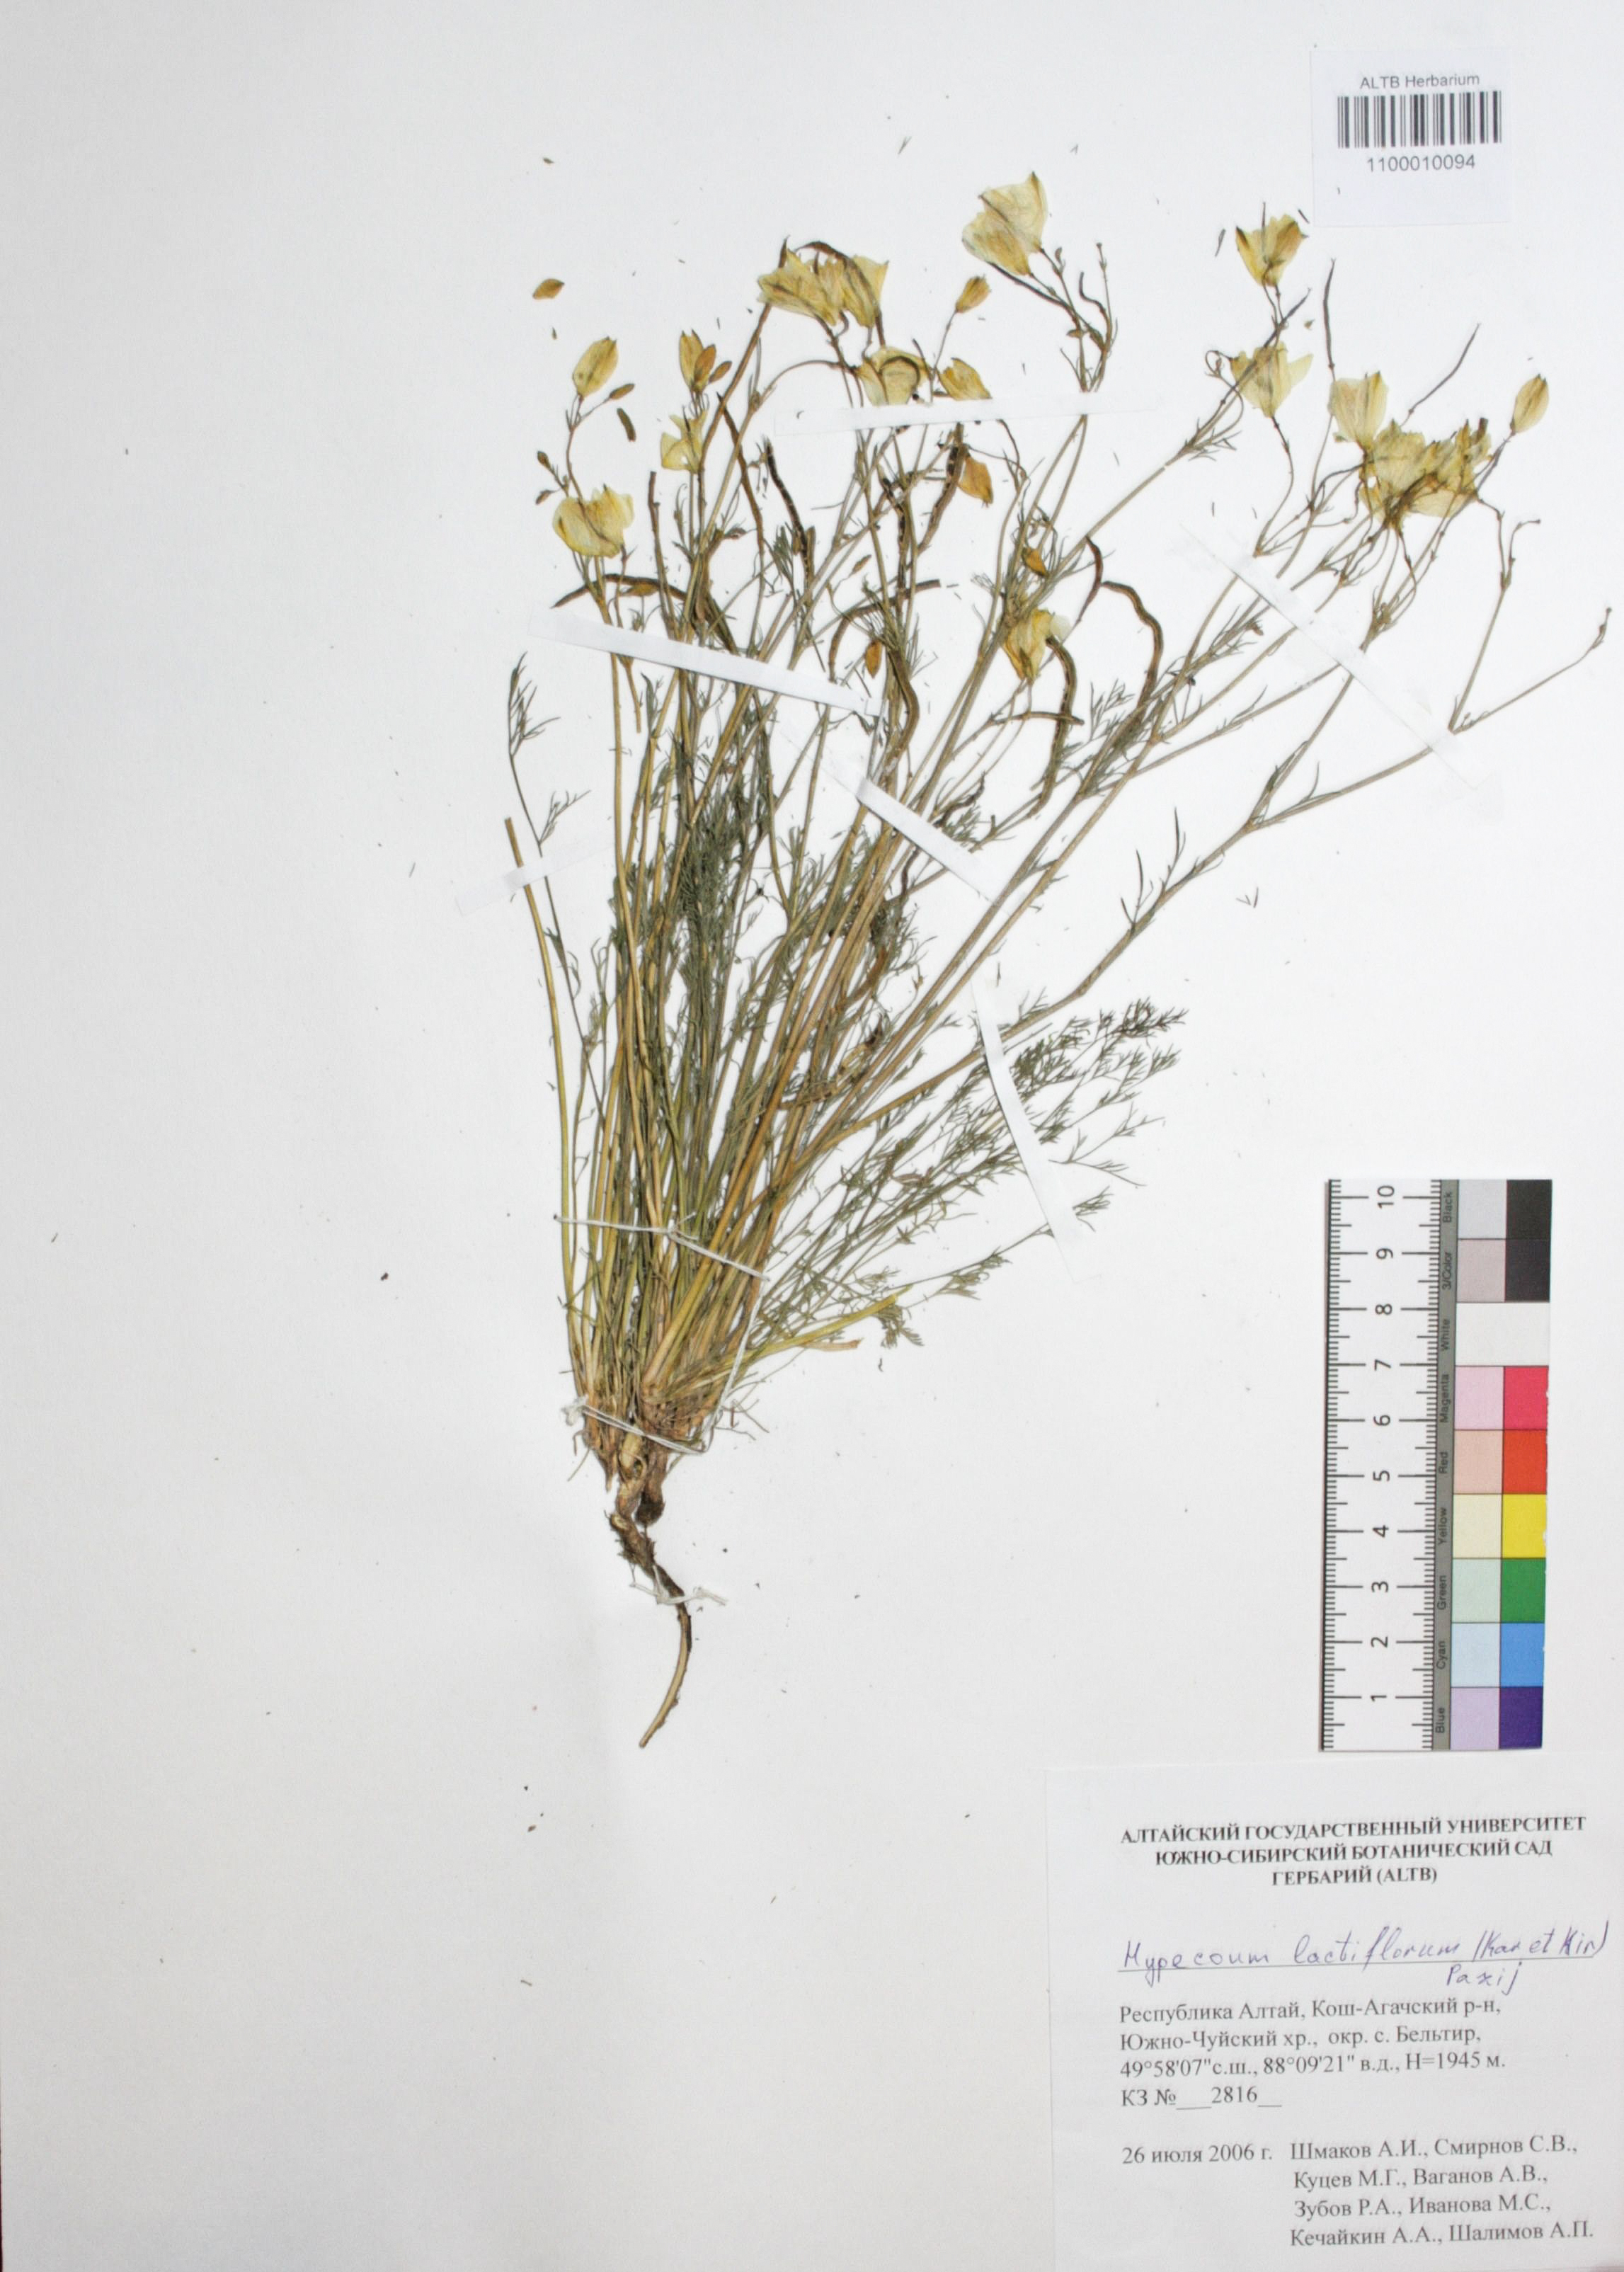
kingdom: Plantae
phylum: Tracheophyta
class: Magnoliopsida
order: Ranunculales
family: Papaveraceae
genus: Hypecoum
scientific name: Hypecoum lactiflorum
